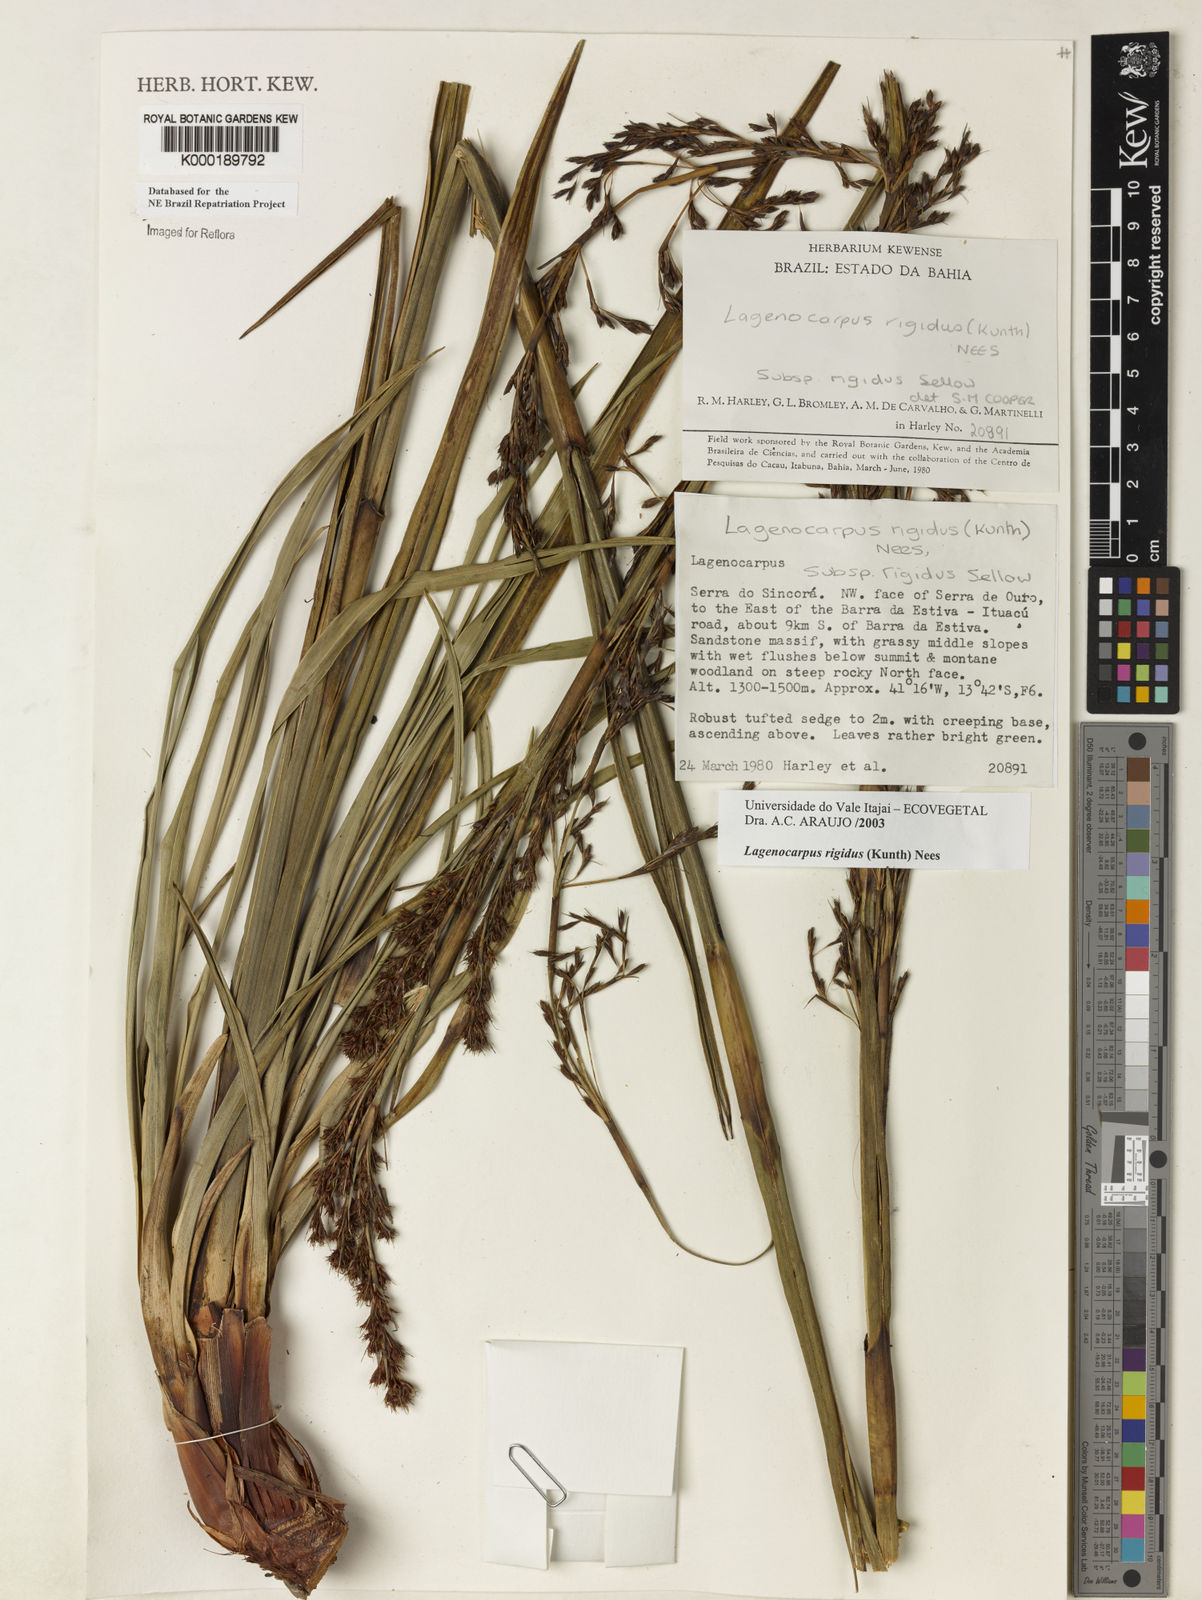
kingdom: Plantae
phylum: Tracheophyta
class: Liliopsida
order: Poales
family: Cyperaceae
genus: Lagenocarpus
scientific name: Lagenocarpus rigidus
